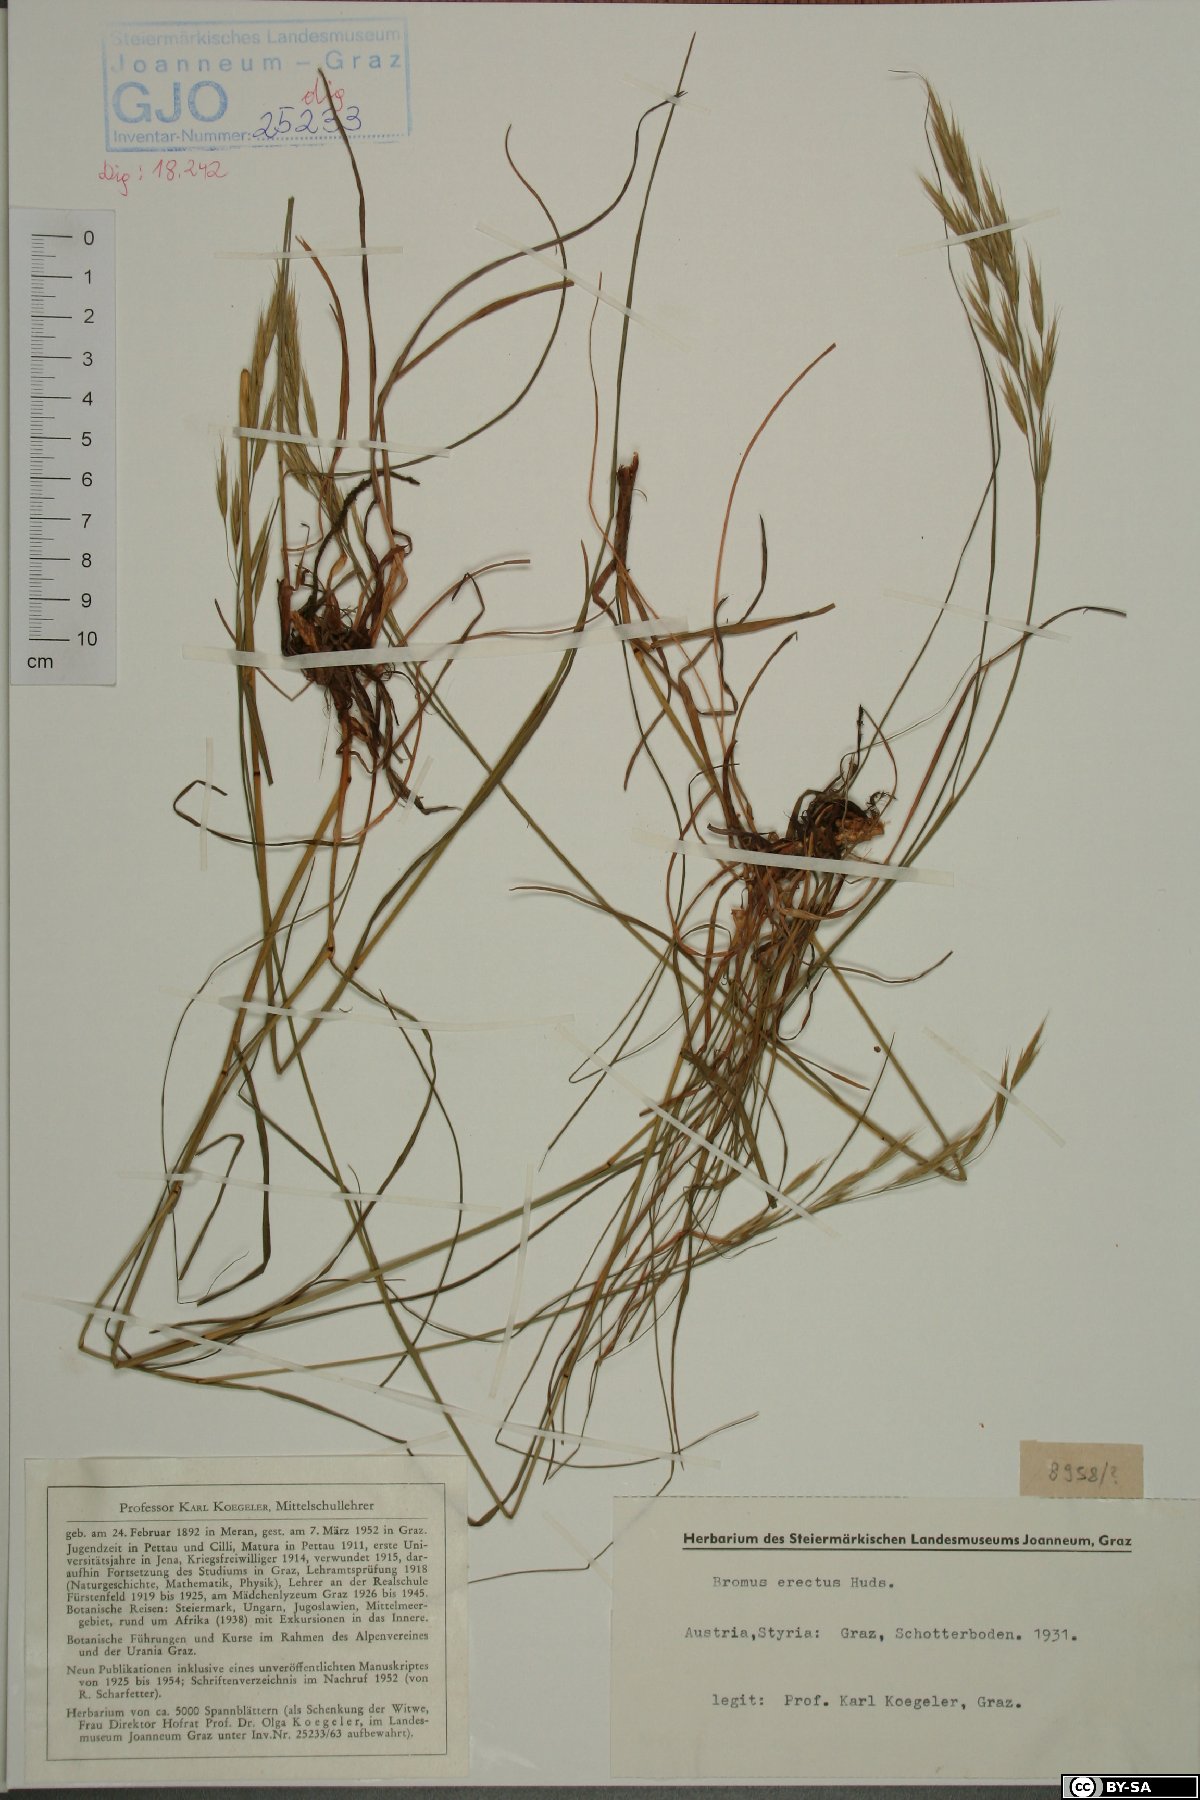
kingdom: Plantae
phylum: Tracheophyta
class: Liliopsida
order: Poales
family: Poaceae
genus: Bromus
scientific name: Bromus erectus
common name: Erect brome
